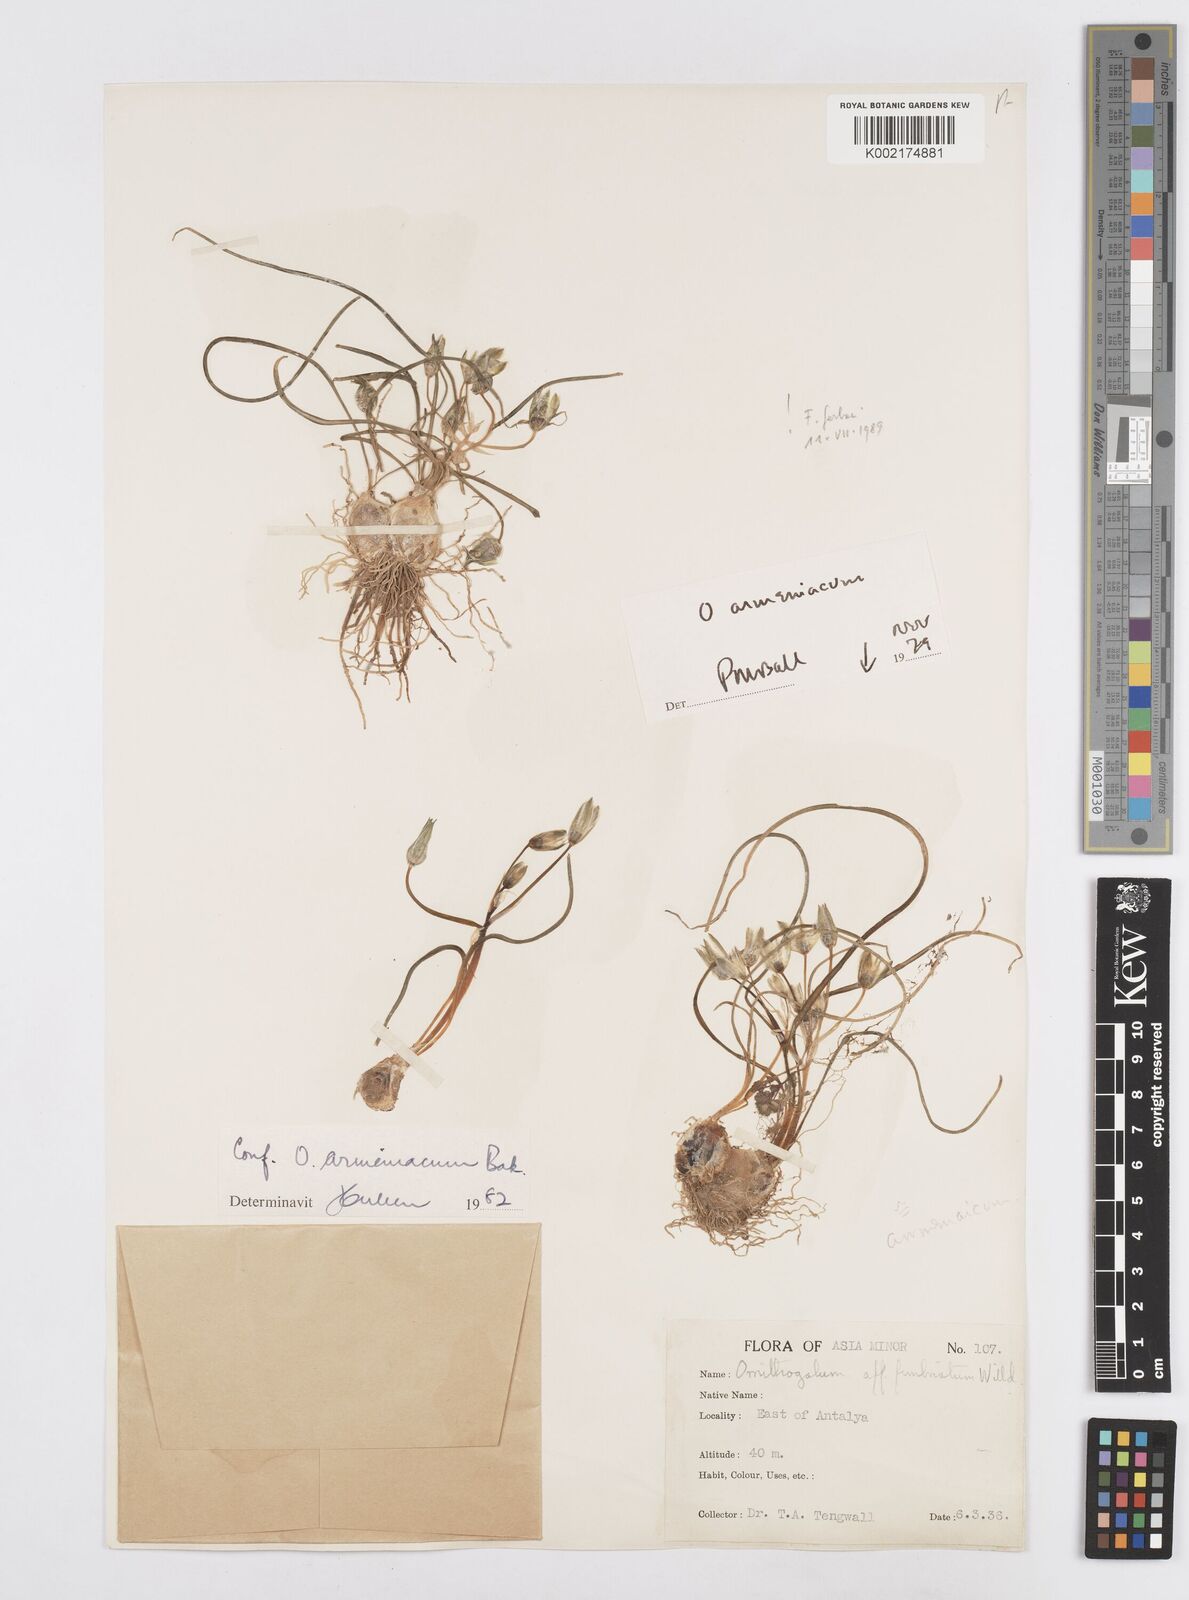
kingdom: Plantae
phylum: Tracheophyta
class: Liliopsida
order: Asparagales
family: Asparagaceae
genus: Ornithogalum
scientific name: Ornithogalum armeniacum
